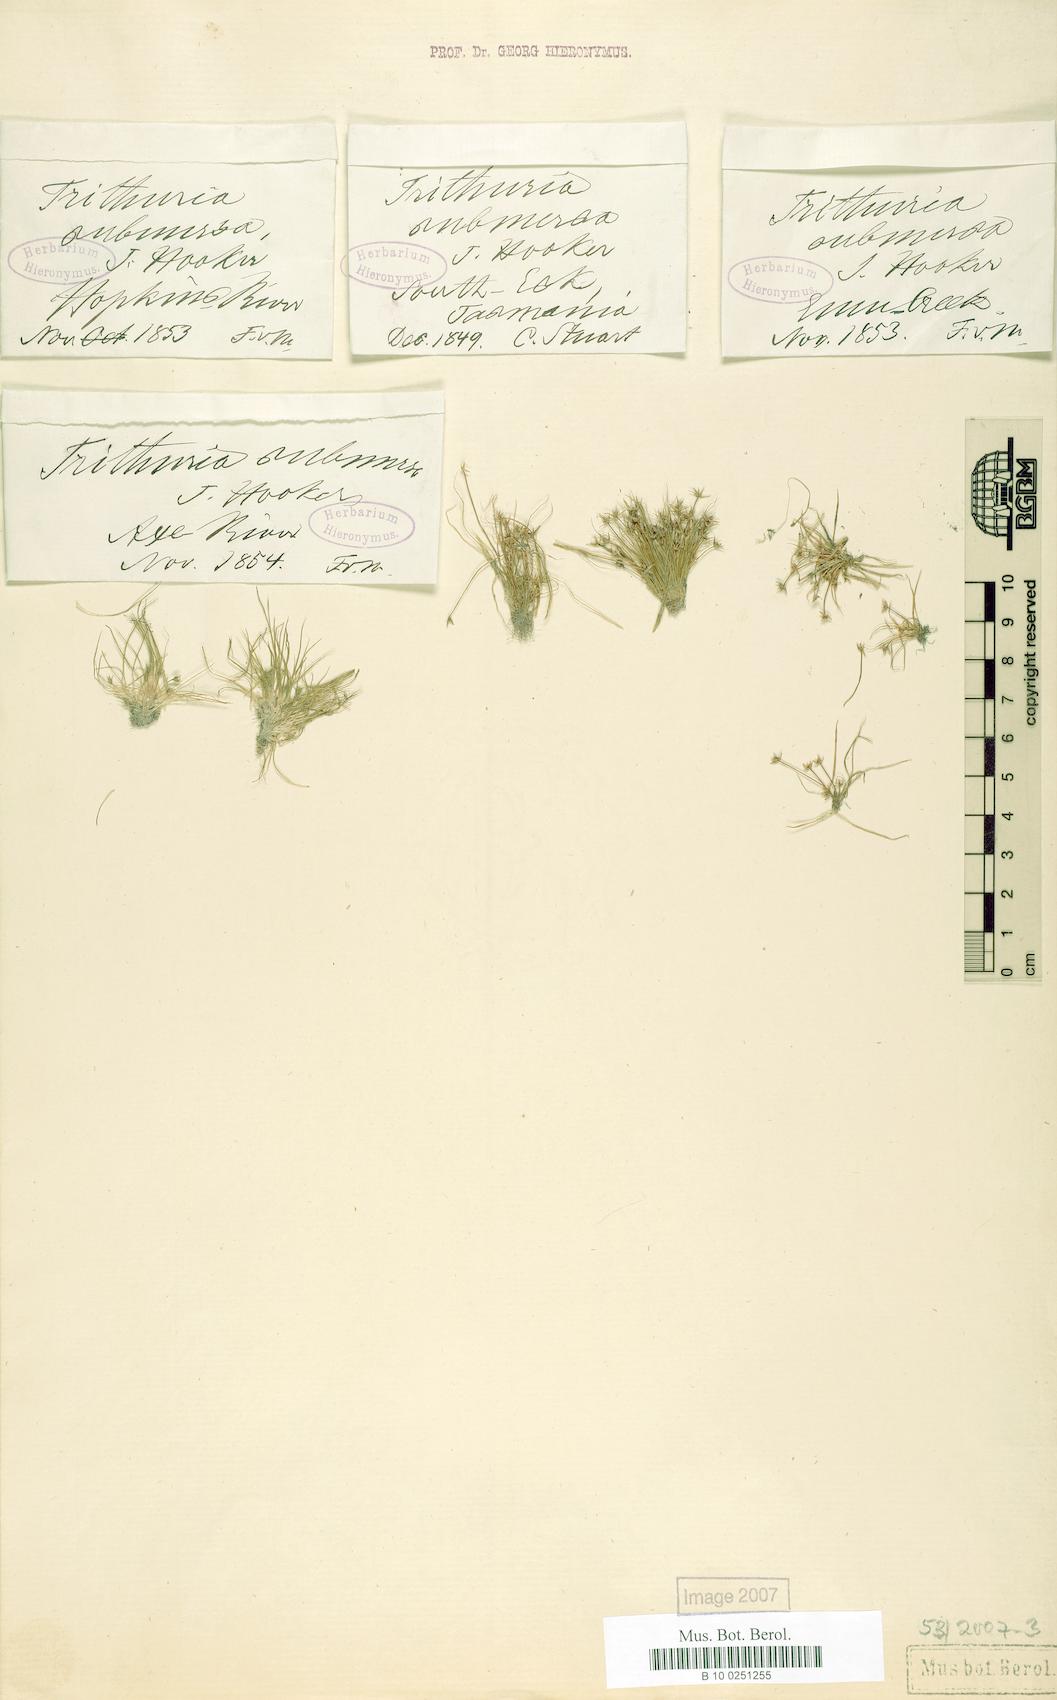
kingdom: Plantae
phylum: Tracheophyta
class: Magnoliopsida
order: Nymphaeales
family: Hydatellaceae
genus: Trithuria
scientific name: Trithuria submersa
